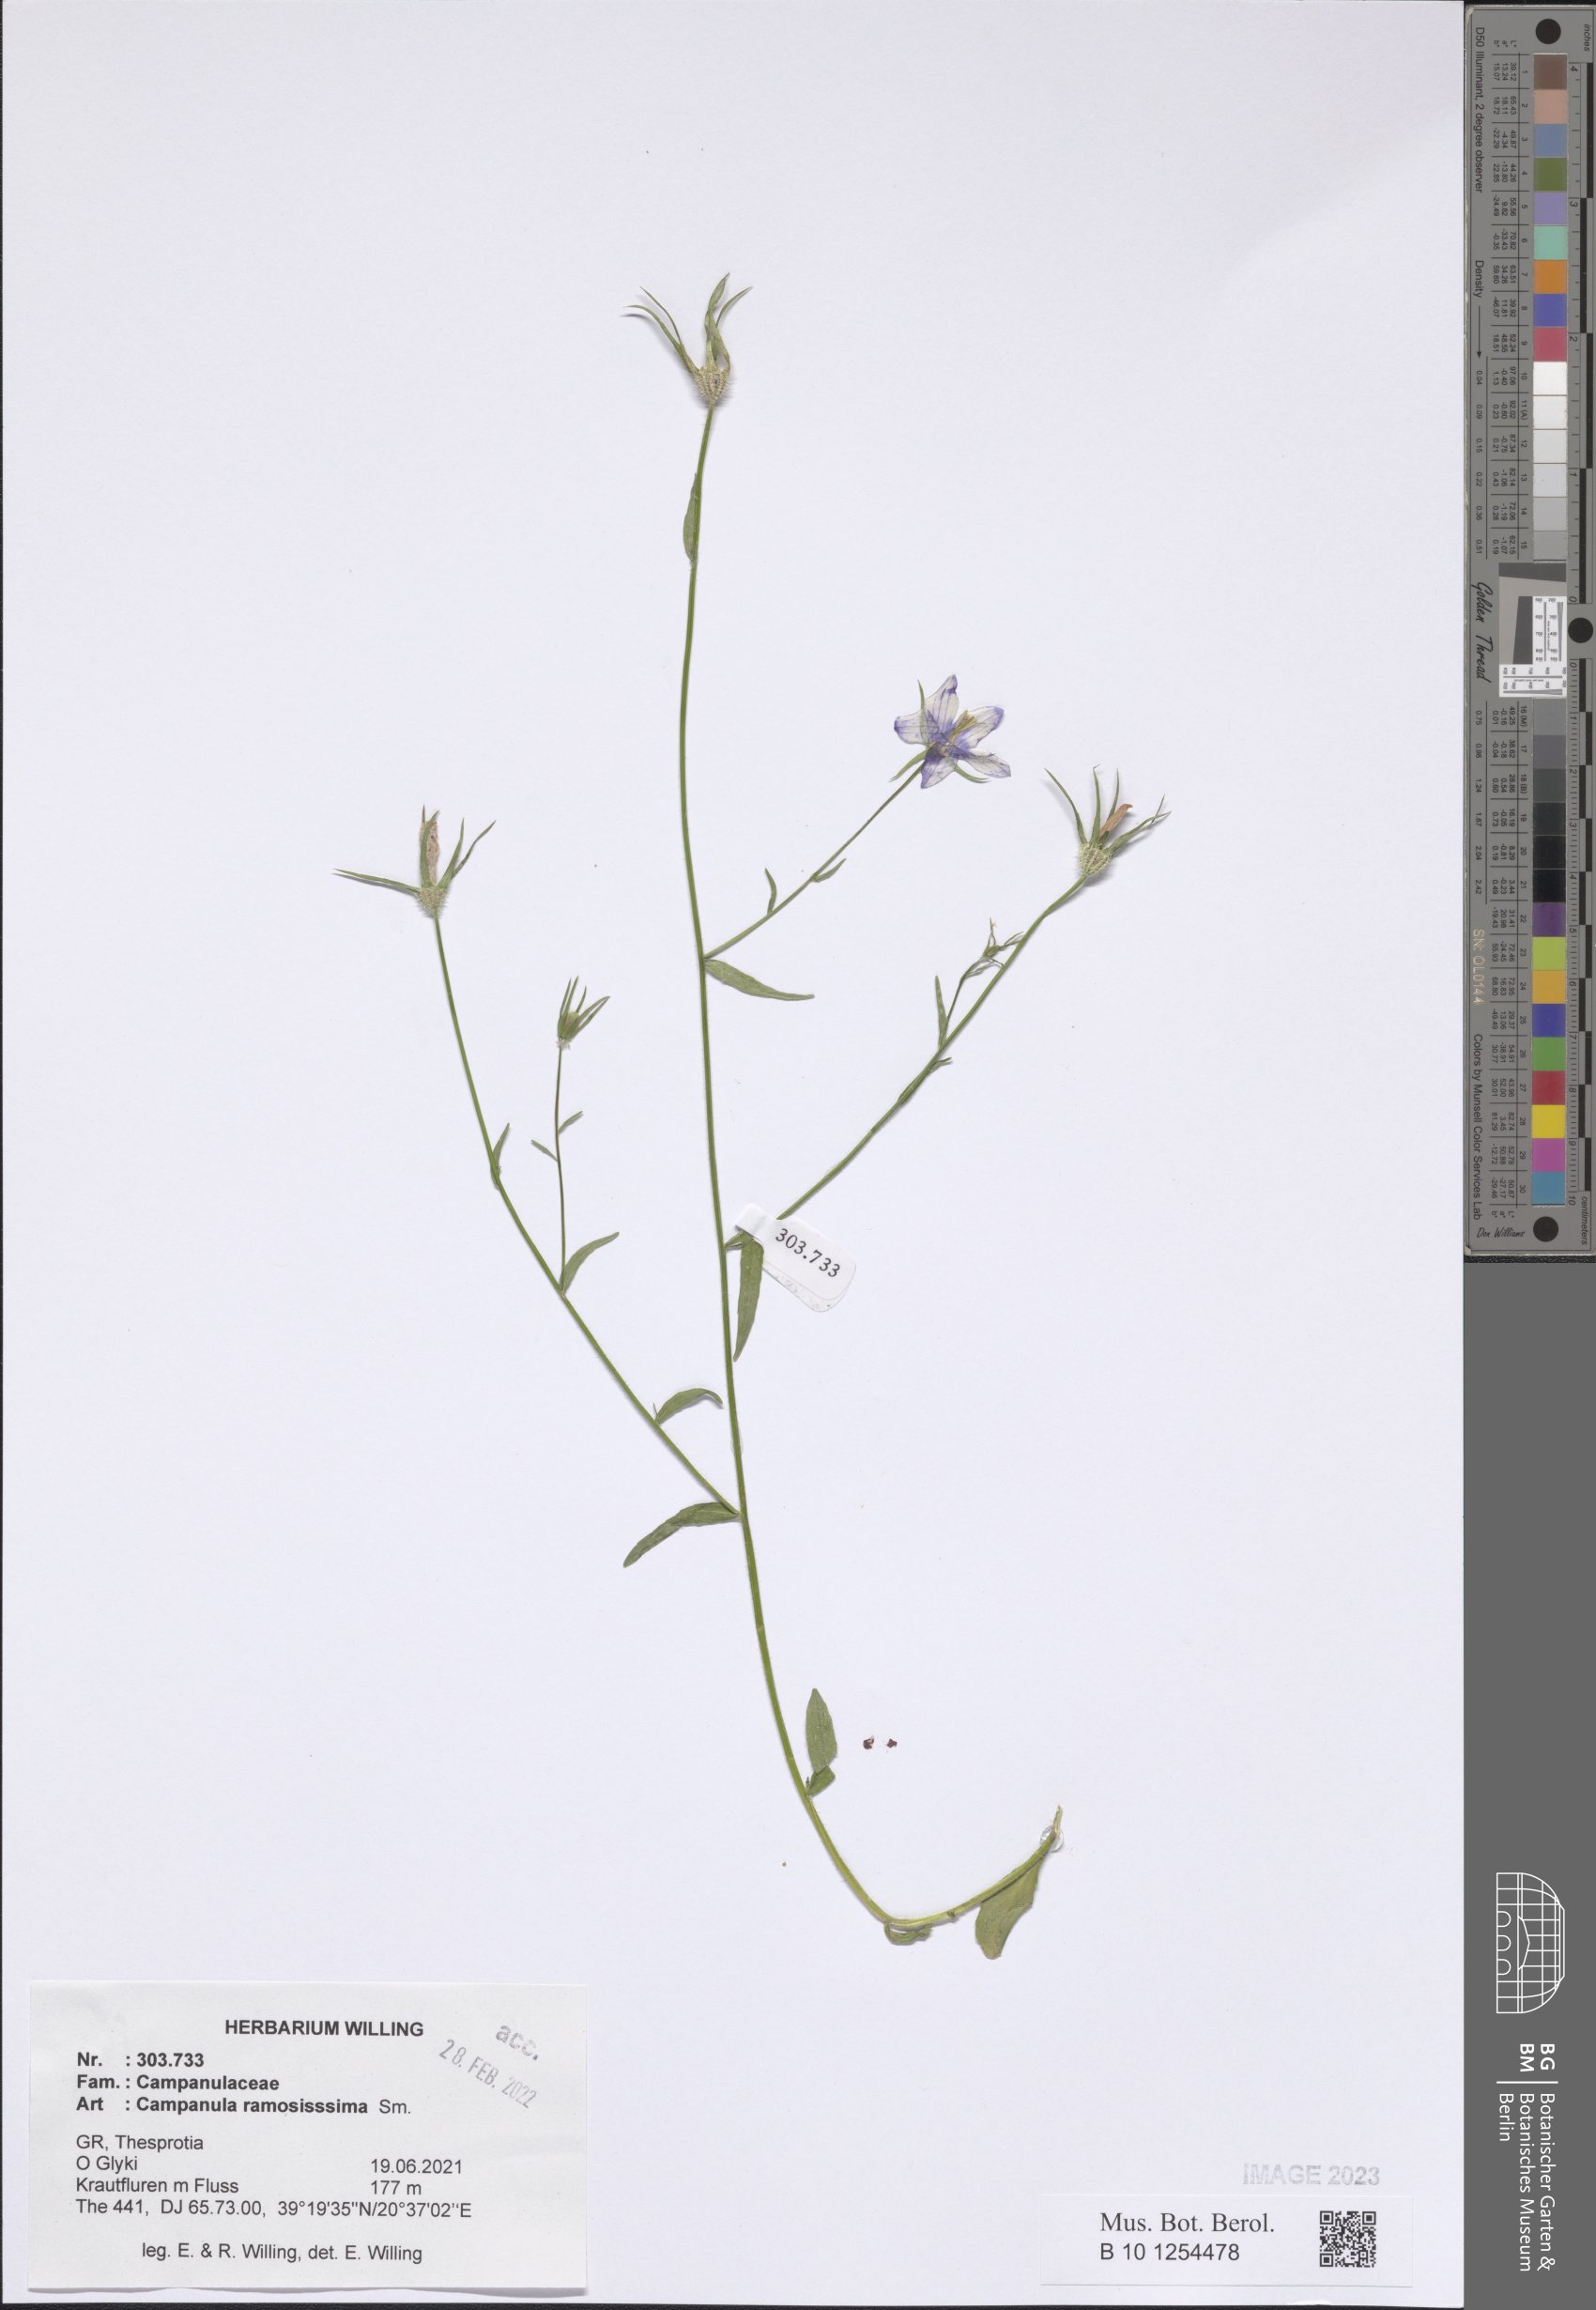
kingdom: Plantae
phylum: Tracheophyta
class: Magnoliopsida
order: Asterales
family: Campanulaceae
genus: Campanula
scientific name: Campanula ramosissima
